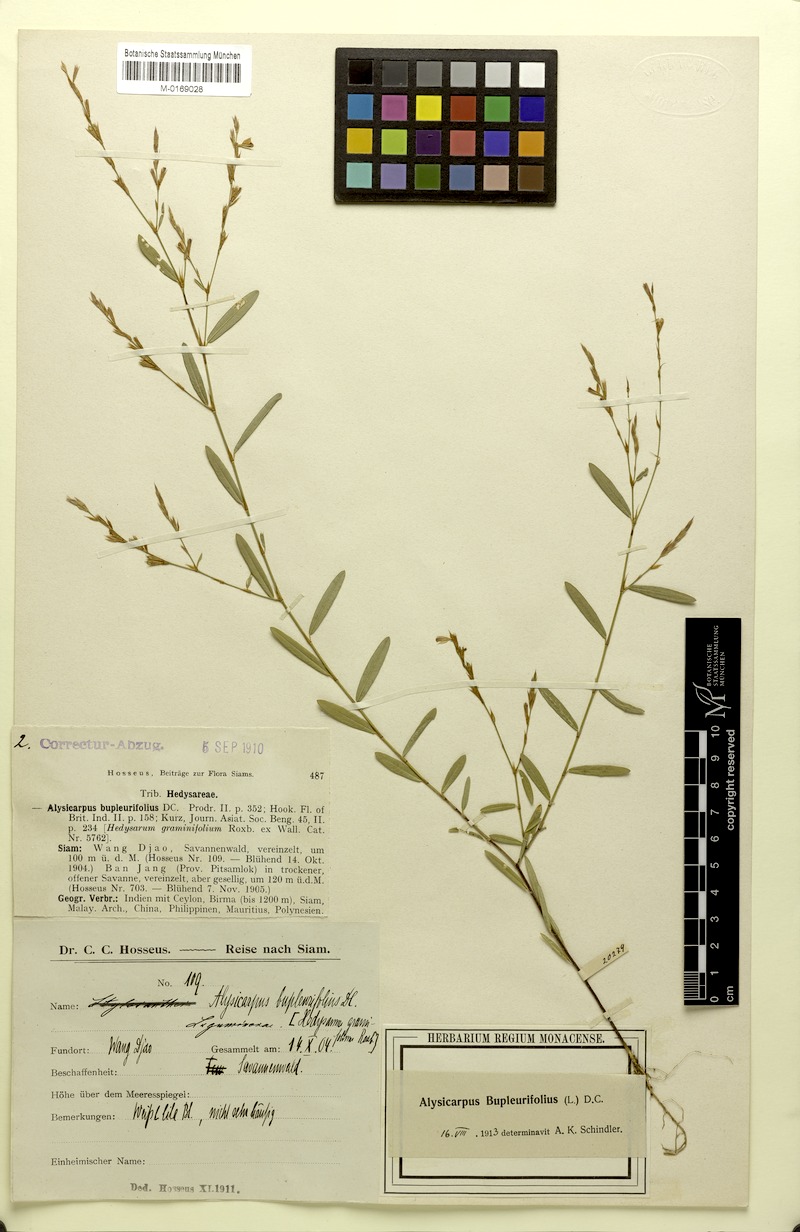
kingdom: Plantae
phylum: Tracheophyta
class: Magnoliopsida
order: Fabales
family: Fabaceae
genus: Alysicarpus
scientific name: Alysicarpus bupleurifolius
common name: Sweet alys
